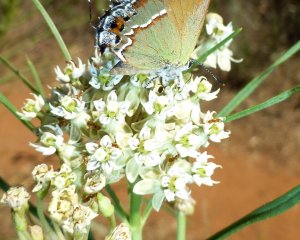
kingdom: Animalia
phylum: Arthropoda
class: Insecta
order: Lepidoptera
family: Lycaenidae
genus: Mitoura
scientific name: Mitoura gryneus
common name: Juniper Hairstreak
